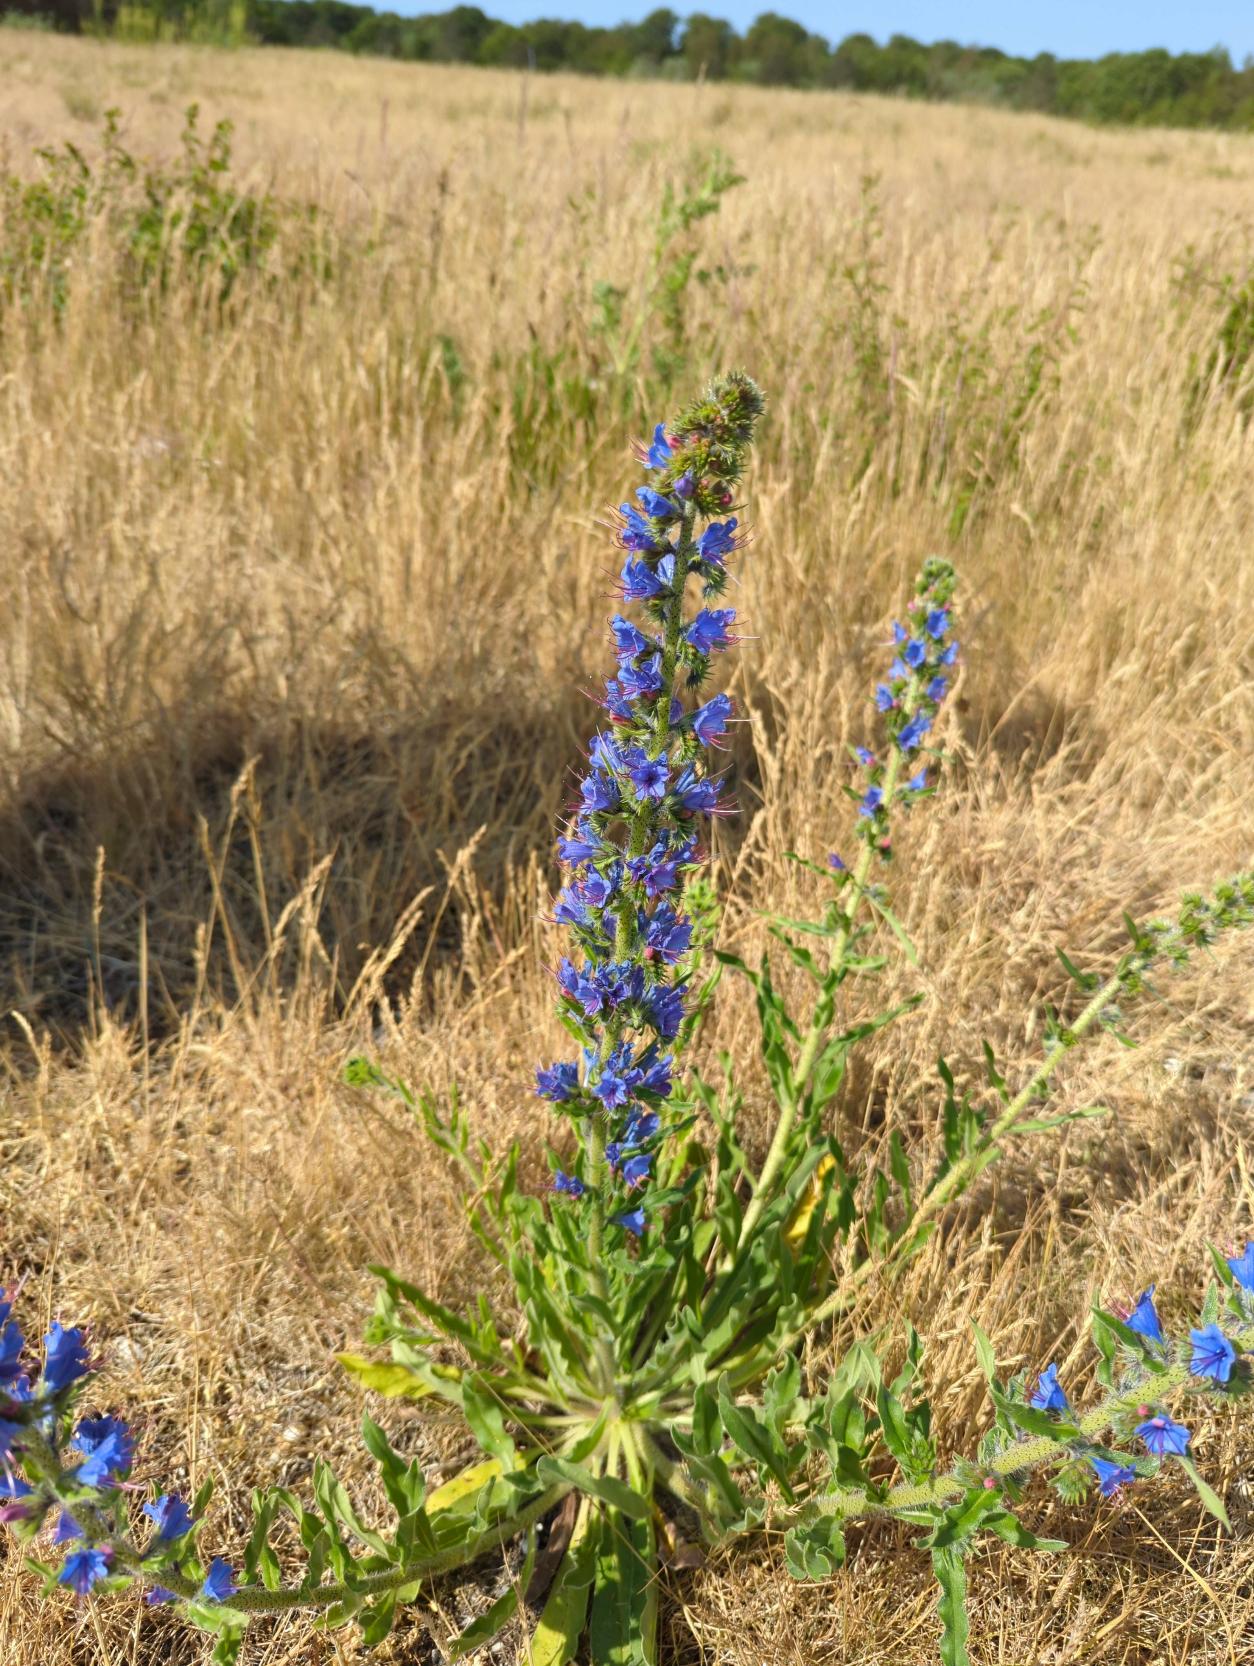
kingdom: Plantae
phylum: Tracheophyta
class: Magnoliopsida
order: Boraginales
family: Boraginaceae
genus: Echium
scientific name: Echium vulgare
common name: Slangehoved
